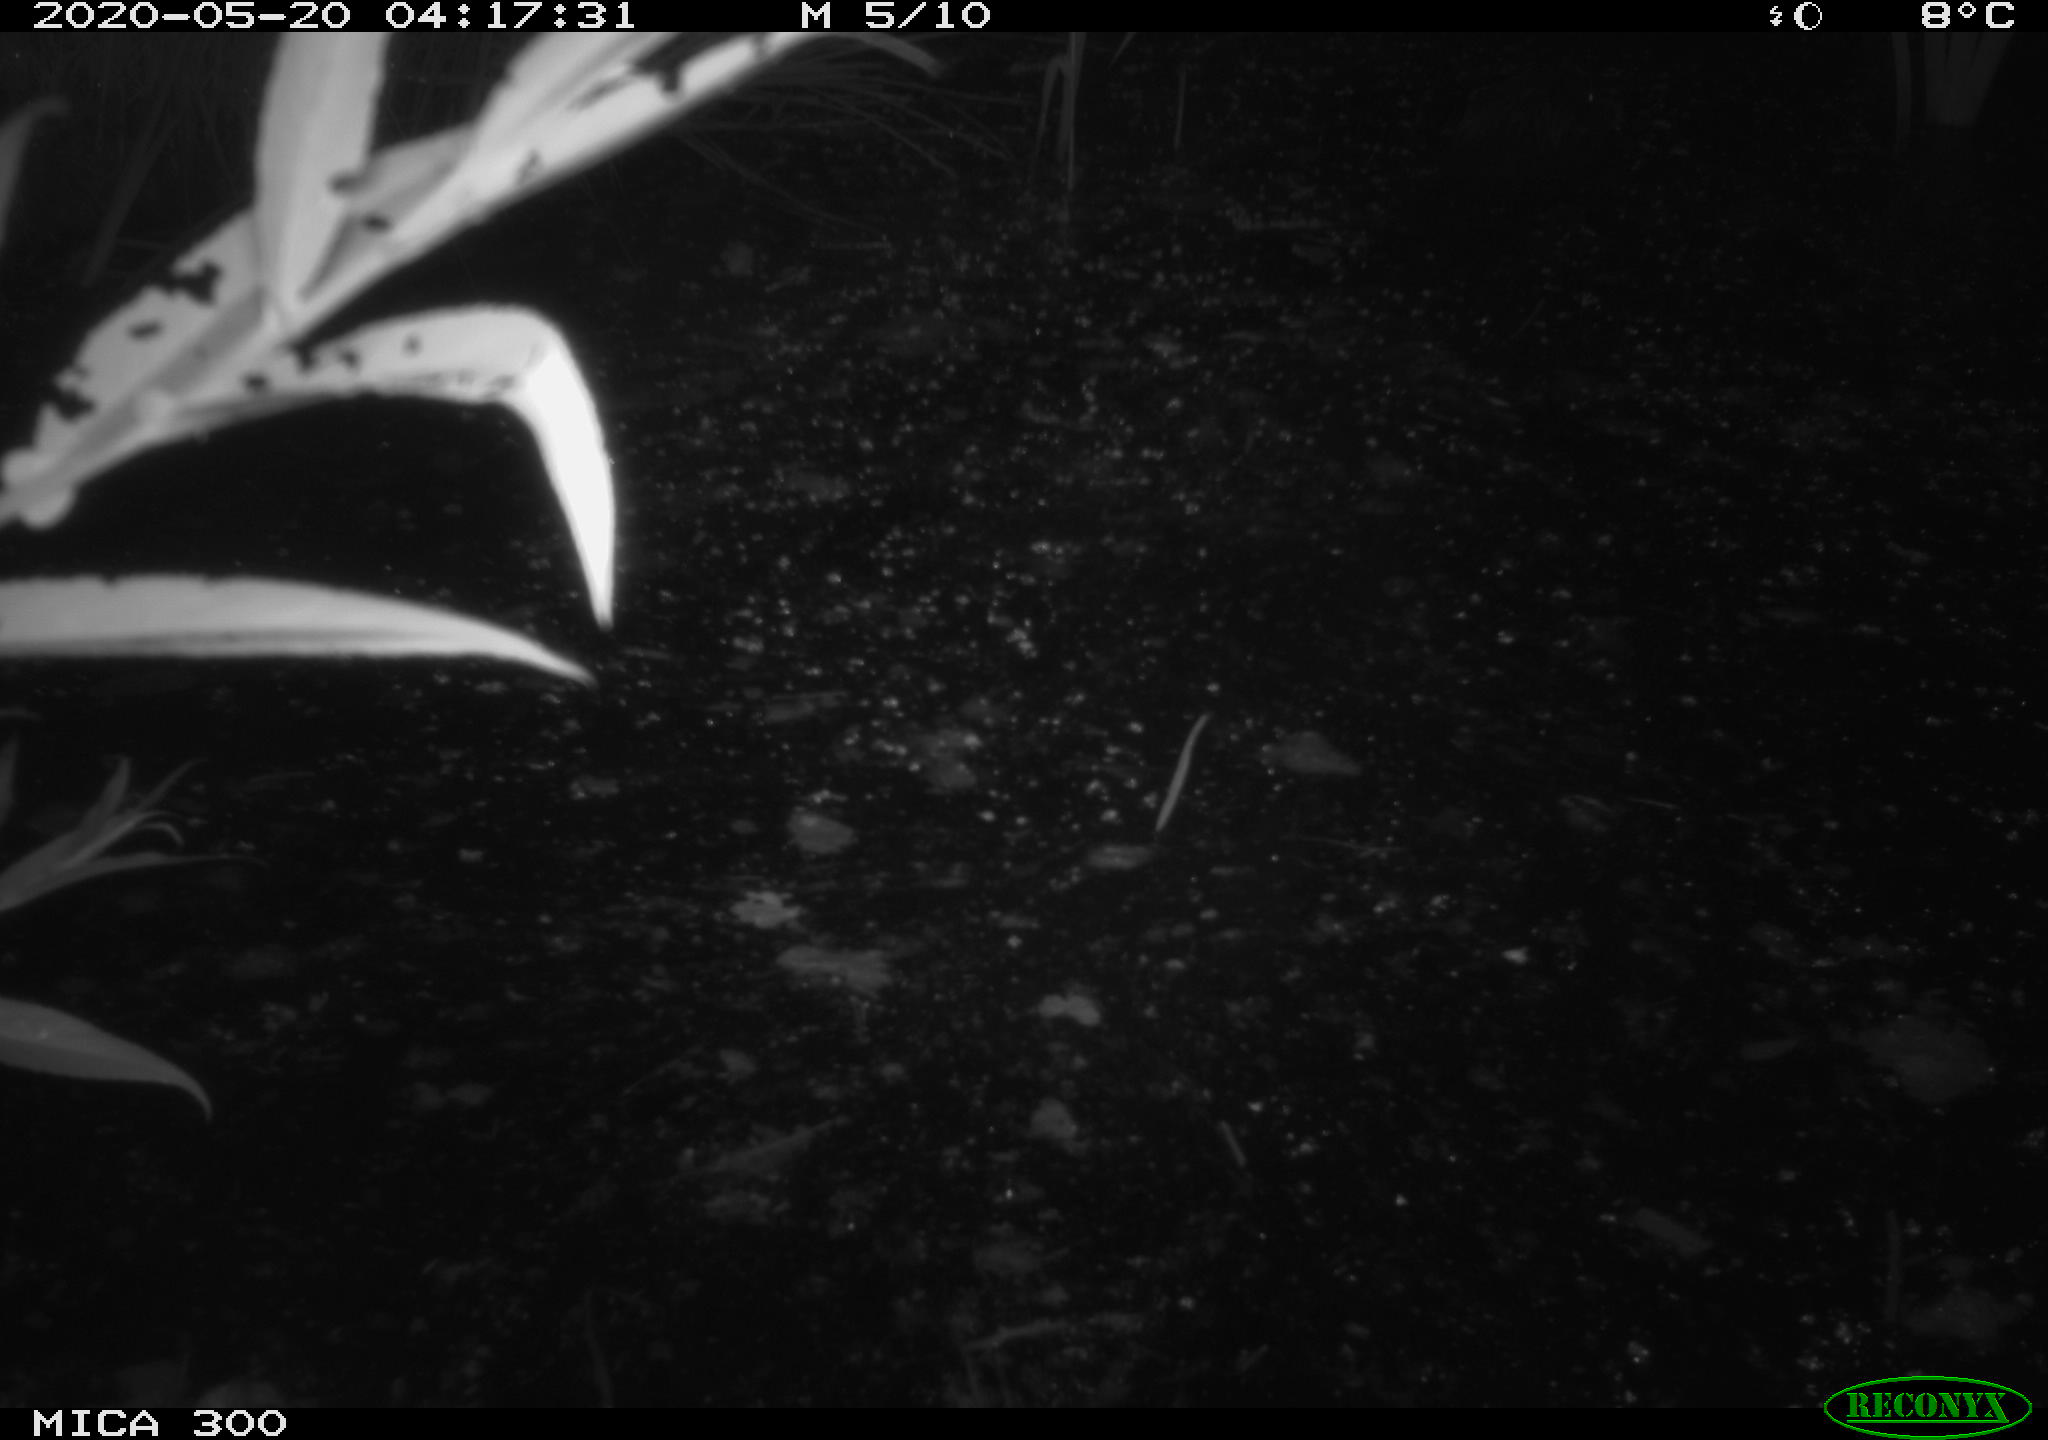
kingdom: Animalia
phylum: Chordata
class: Mammalia
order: Rodentia
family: Castoridae
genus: Castor
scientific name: Castor fiber
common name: Eurasian beaver
